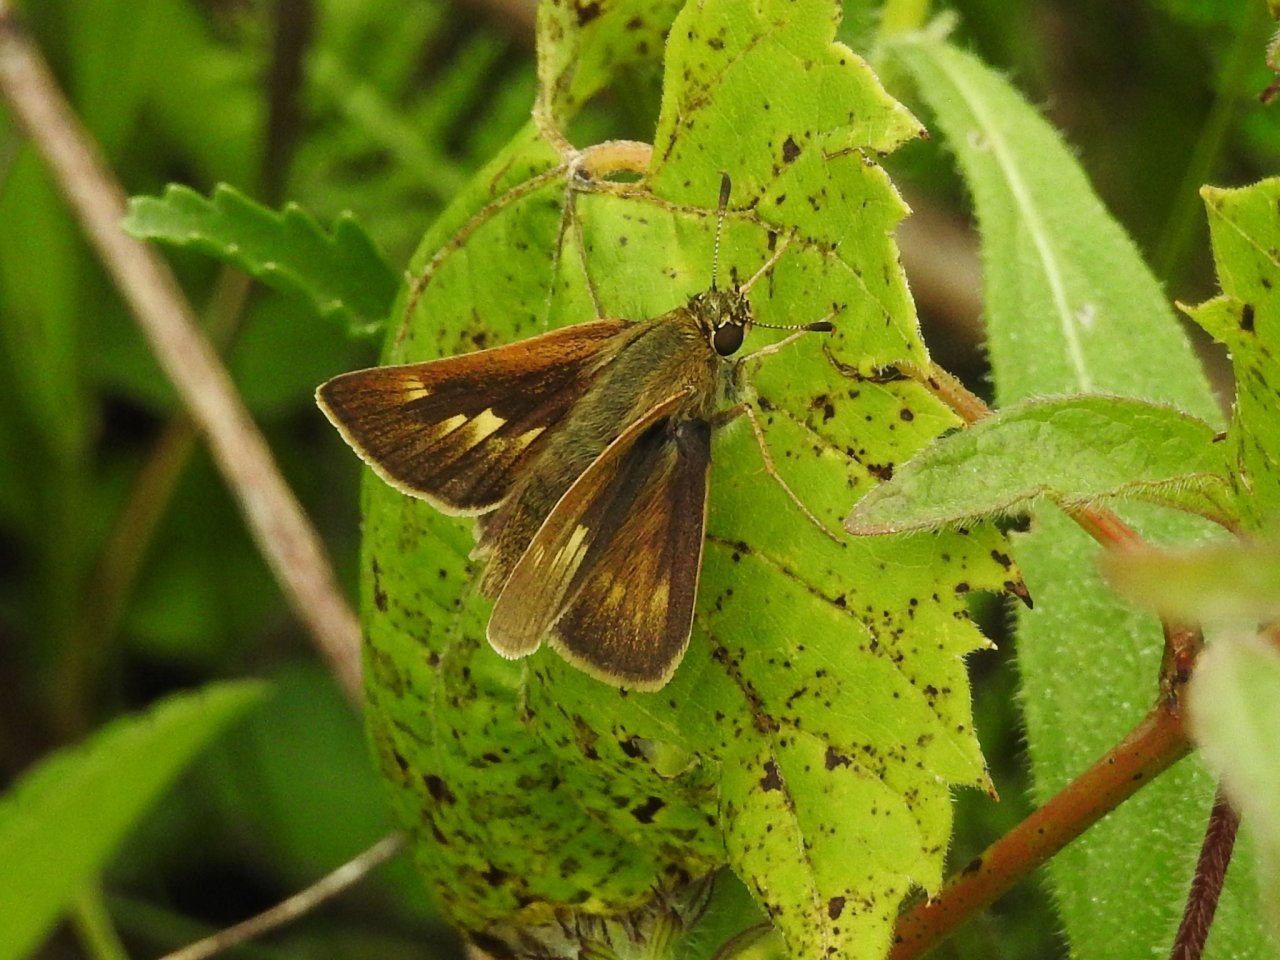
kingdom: Animalia
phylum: Arthropoda
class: Insecta
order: Lepidoptera
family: Hesperiidae
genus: Polites
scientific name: Polites
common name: Crossline Skipper
